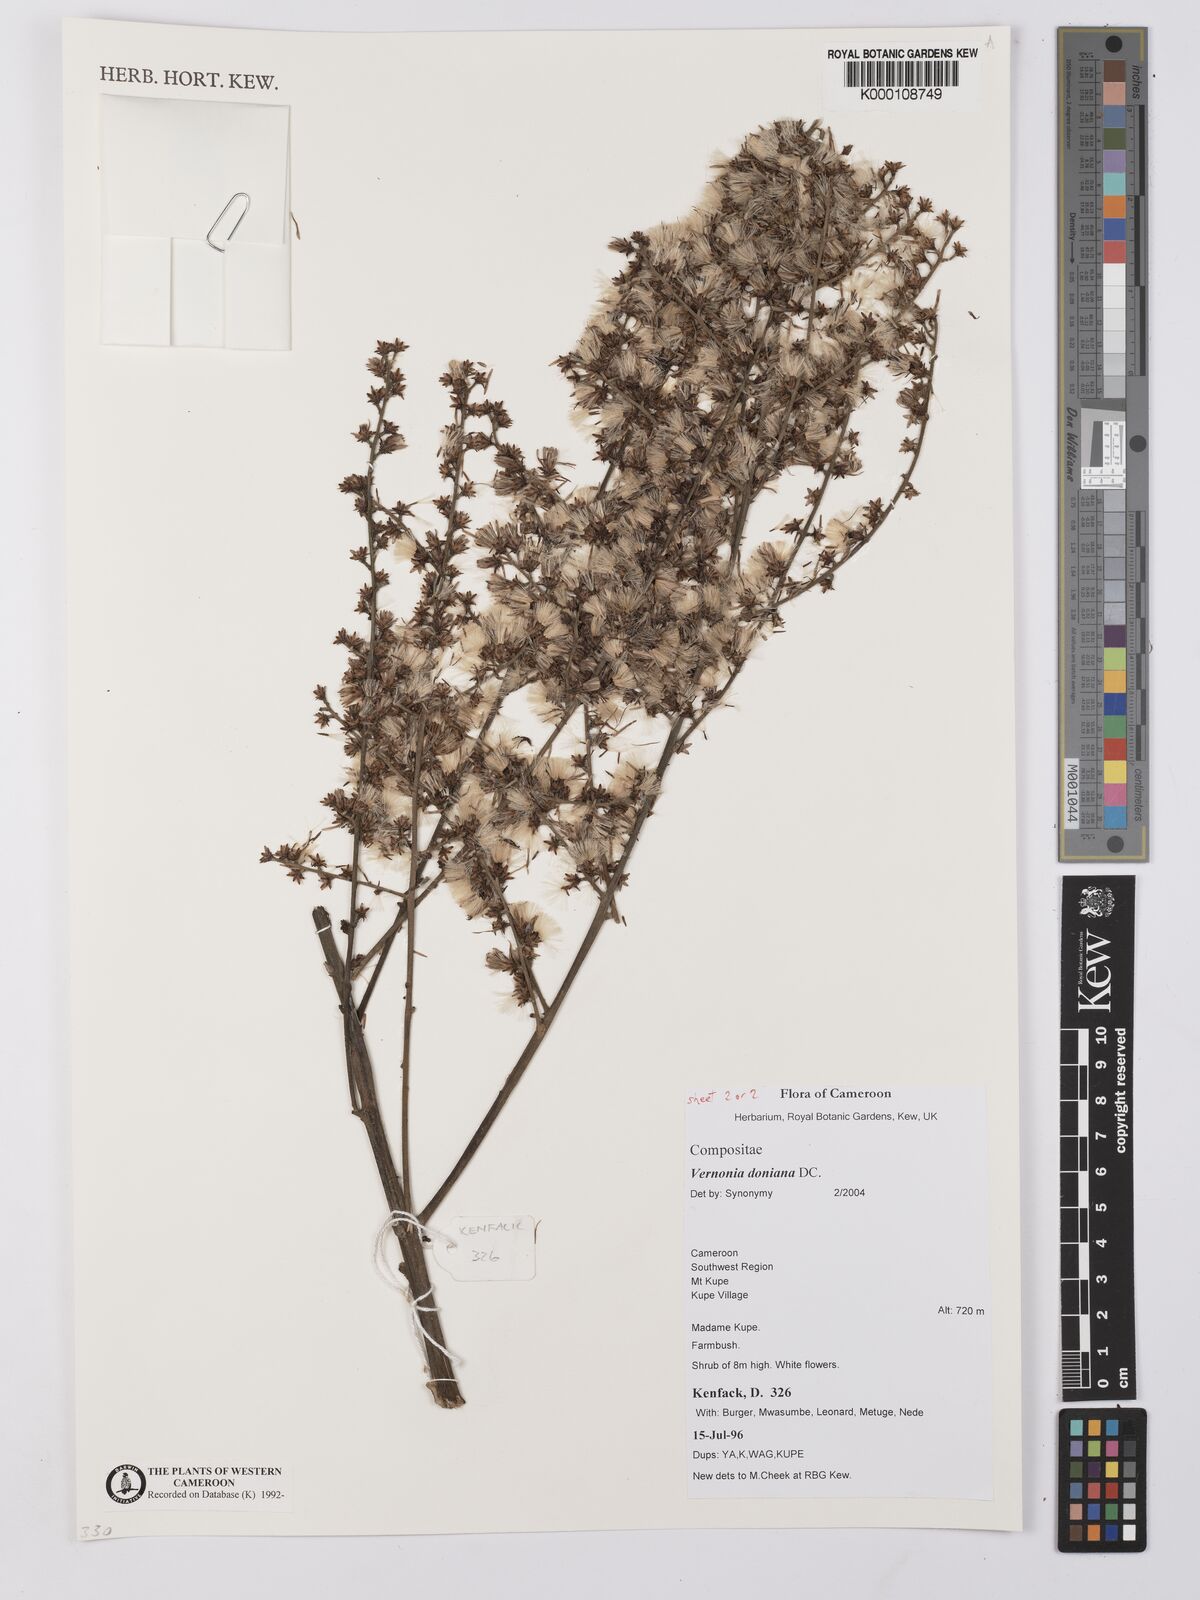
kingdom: Plantae
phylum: Tracheophyta
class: Magnoliopsida
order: Asterales
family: Asteraceae
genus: Brenandendron
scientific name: Brenandendron donianum
